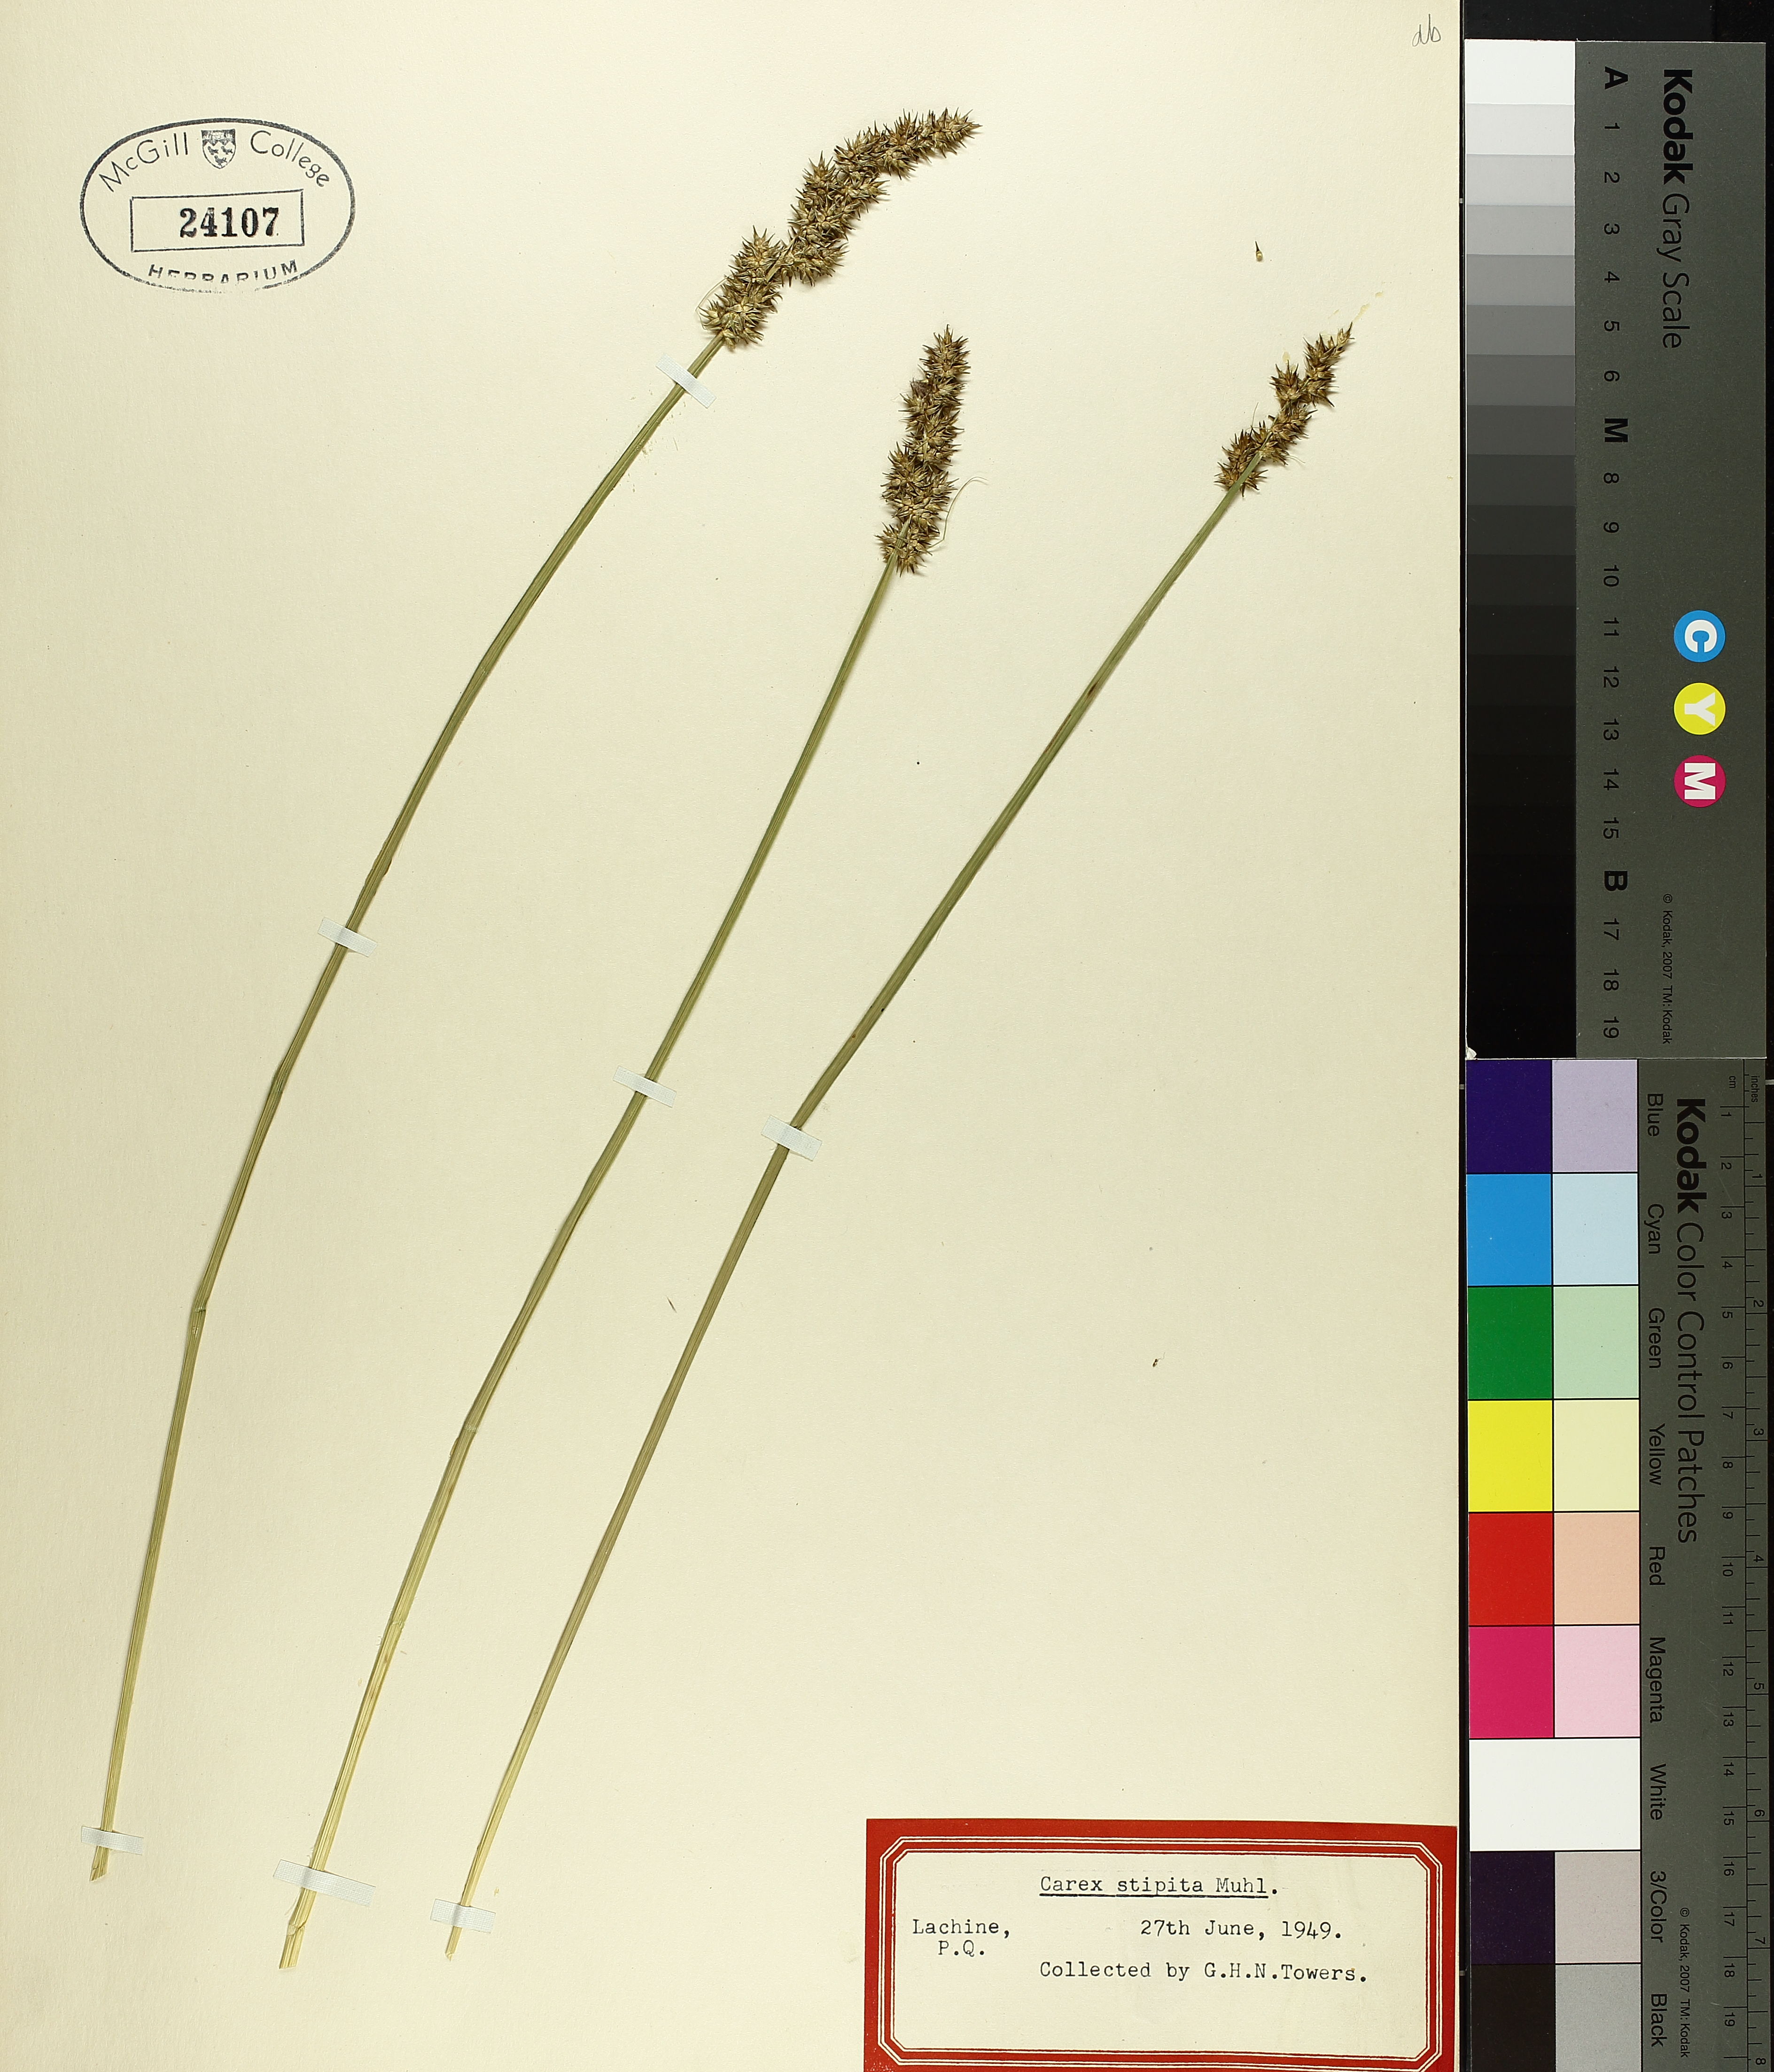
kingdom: Plantae
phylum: Tracheophyta
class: Liliopsida
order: Poales
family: Cyperaceae
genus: Carex
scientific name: Carex stipata
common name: Awl-fruited sedge
